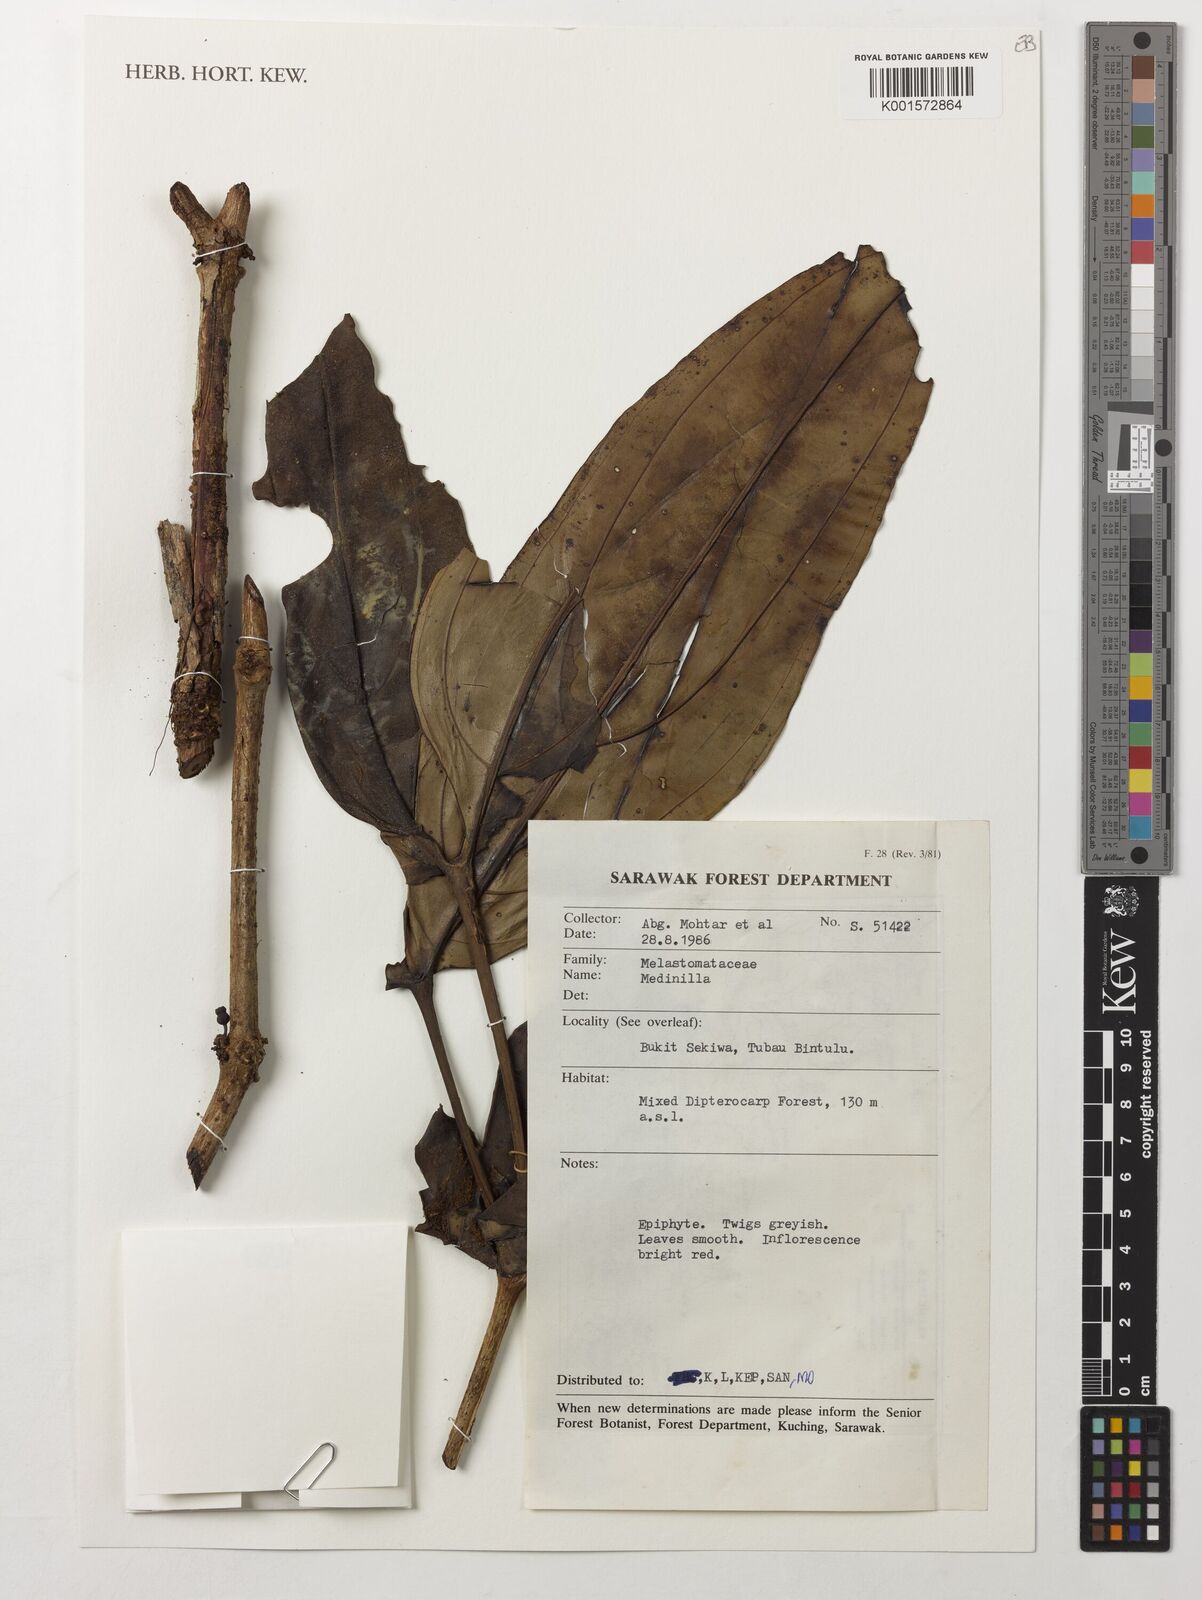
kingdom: Plantae
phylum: Tracheophyta
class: Magnoliopsida
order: Myrtales
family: Melastomataceae
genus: Medinilla
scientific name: Medinilla
